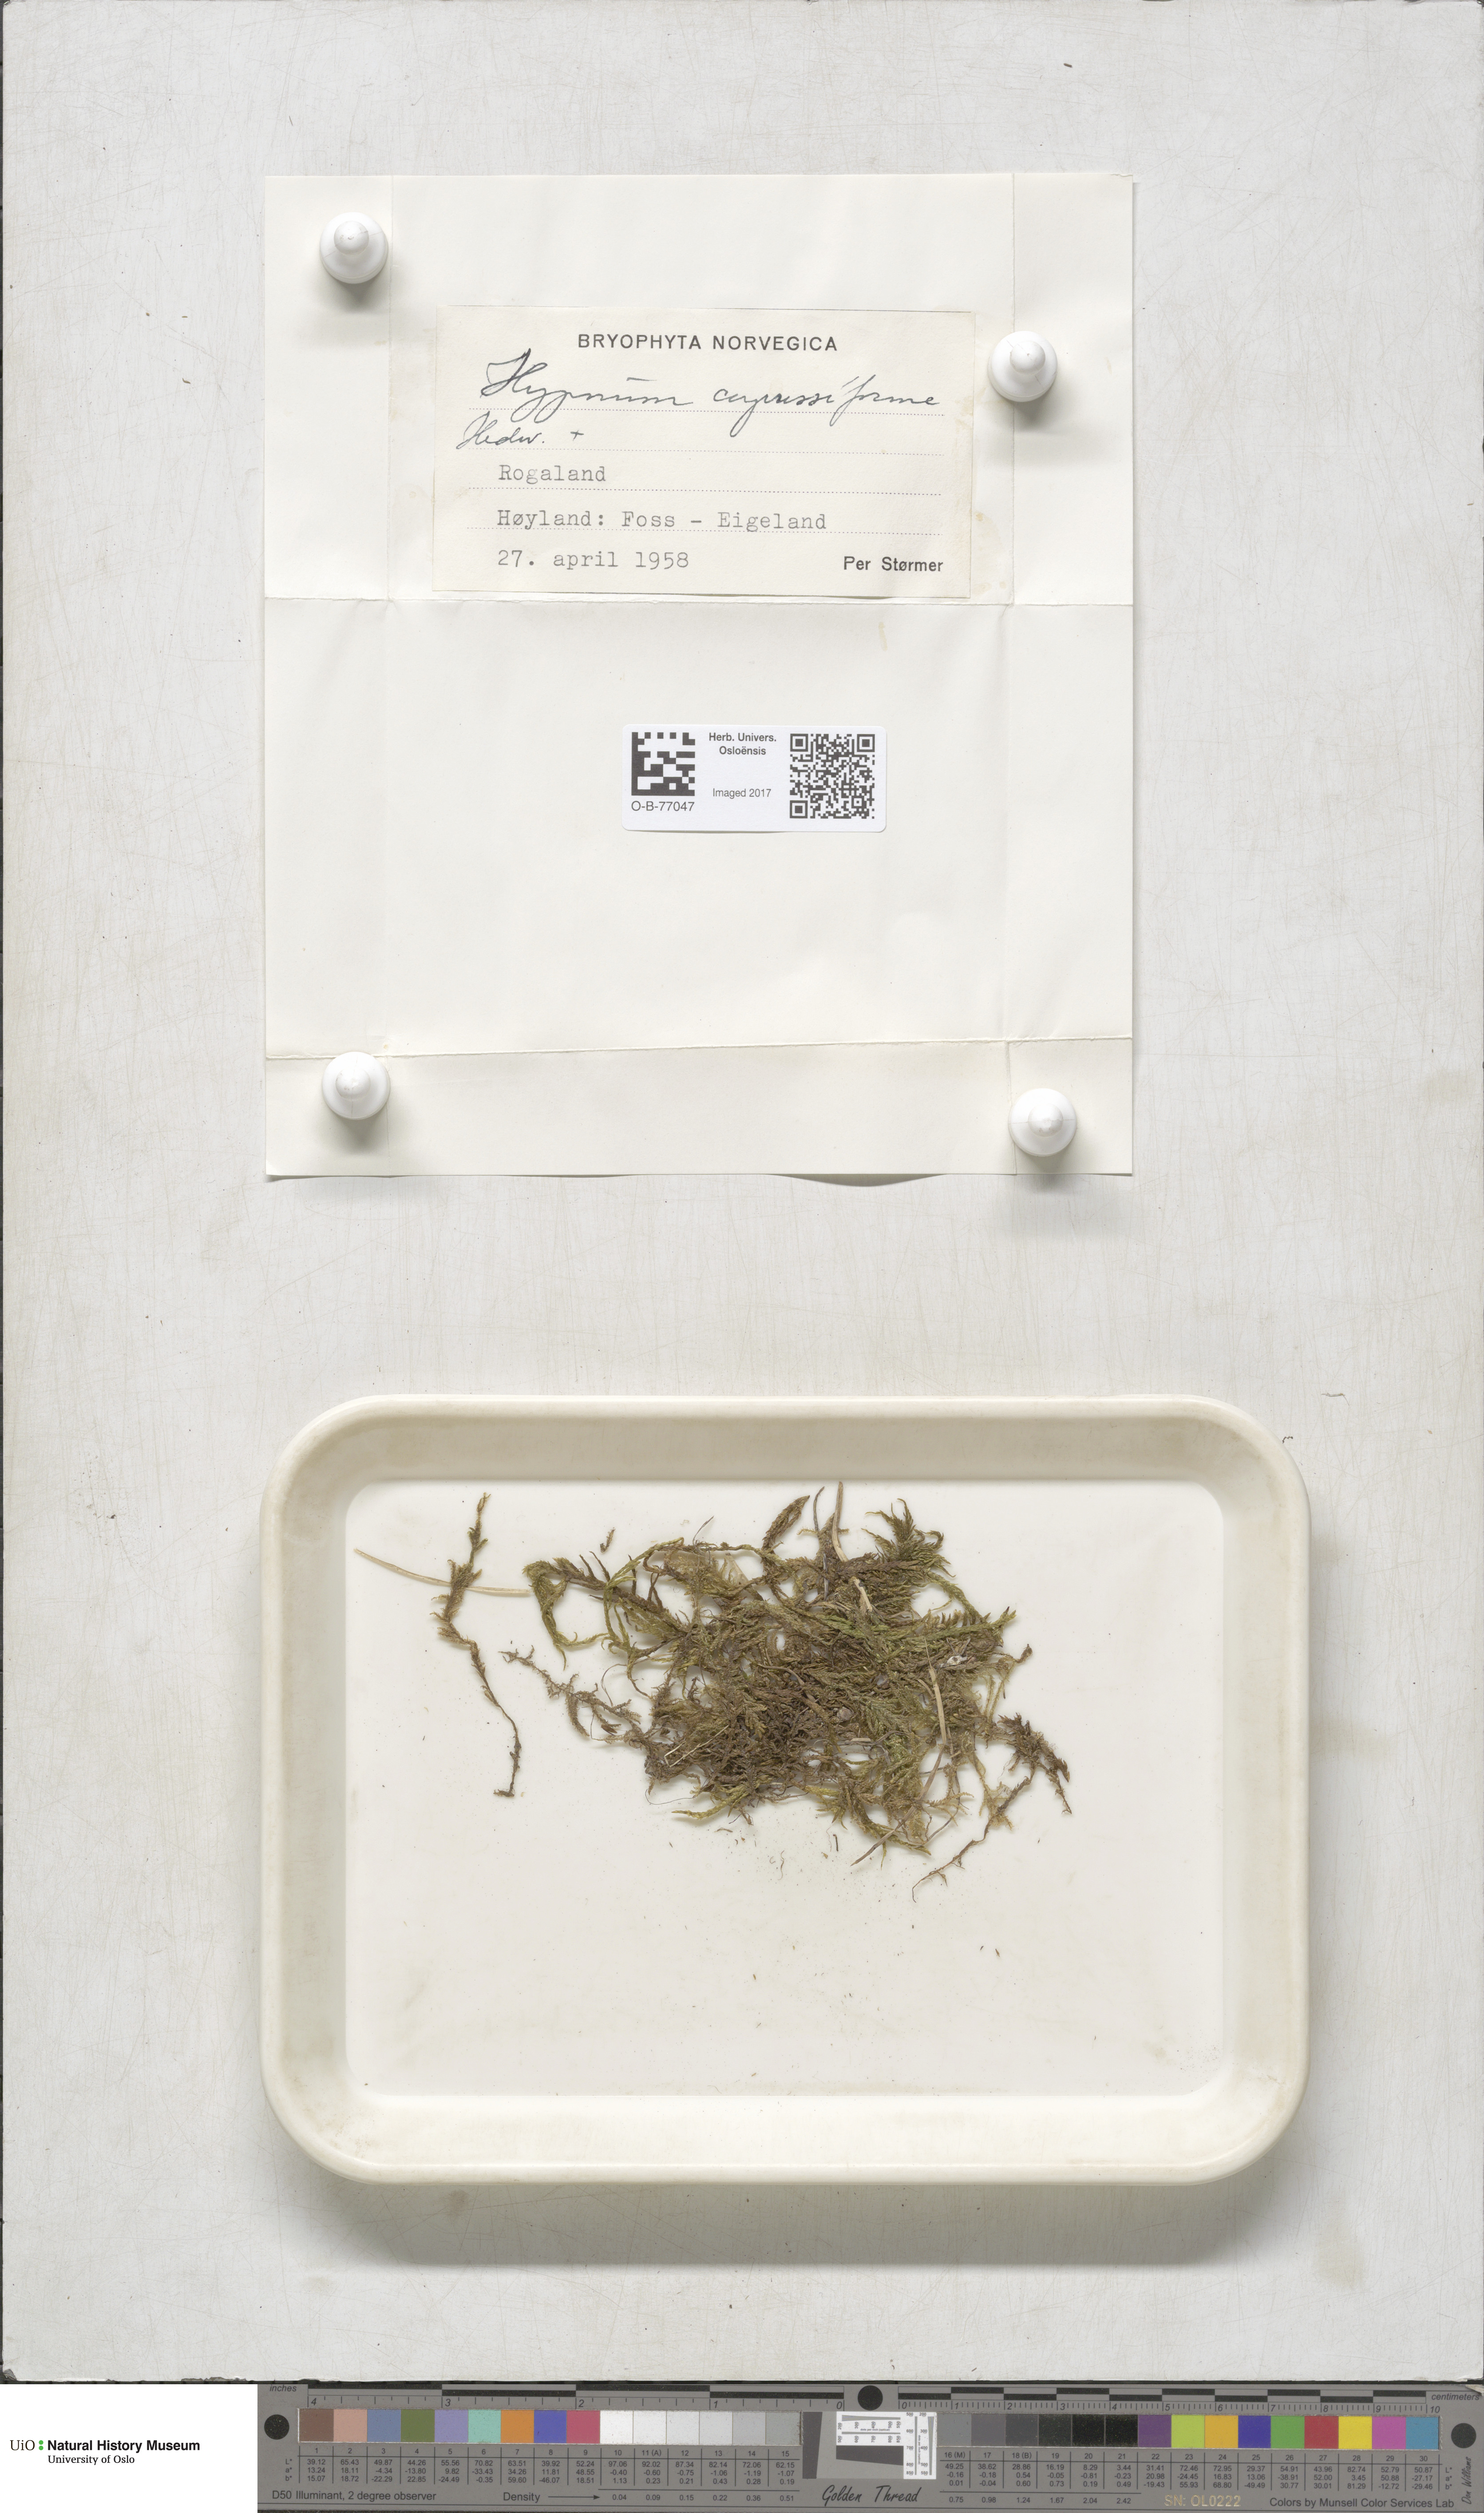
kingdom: Plantae
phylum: Bryophyta
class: Bryopsida
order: Hypnales
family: Hypnaceae
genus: Hypnum
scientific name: Hypnum cupressiforme
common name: Cypress-leaved plait-moss
